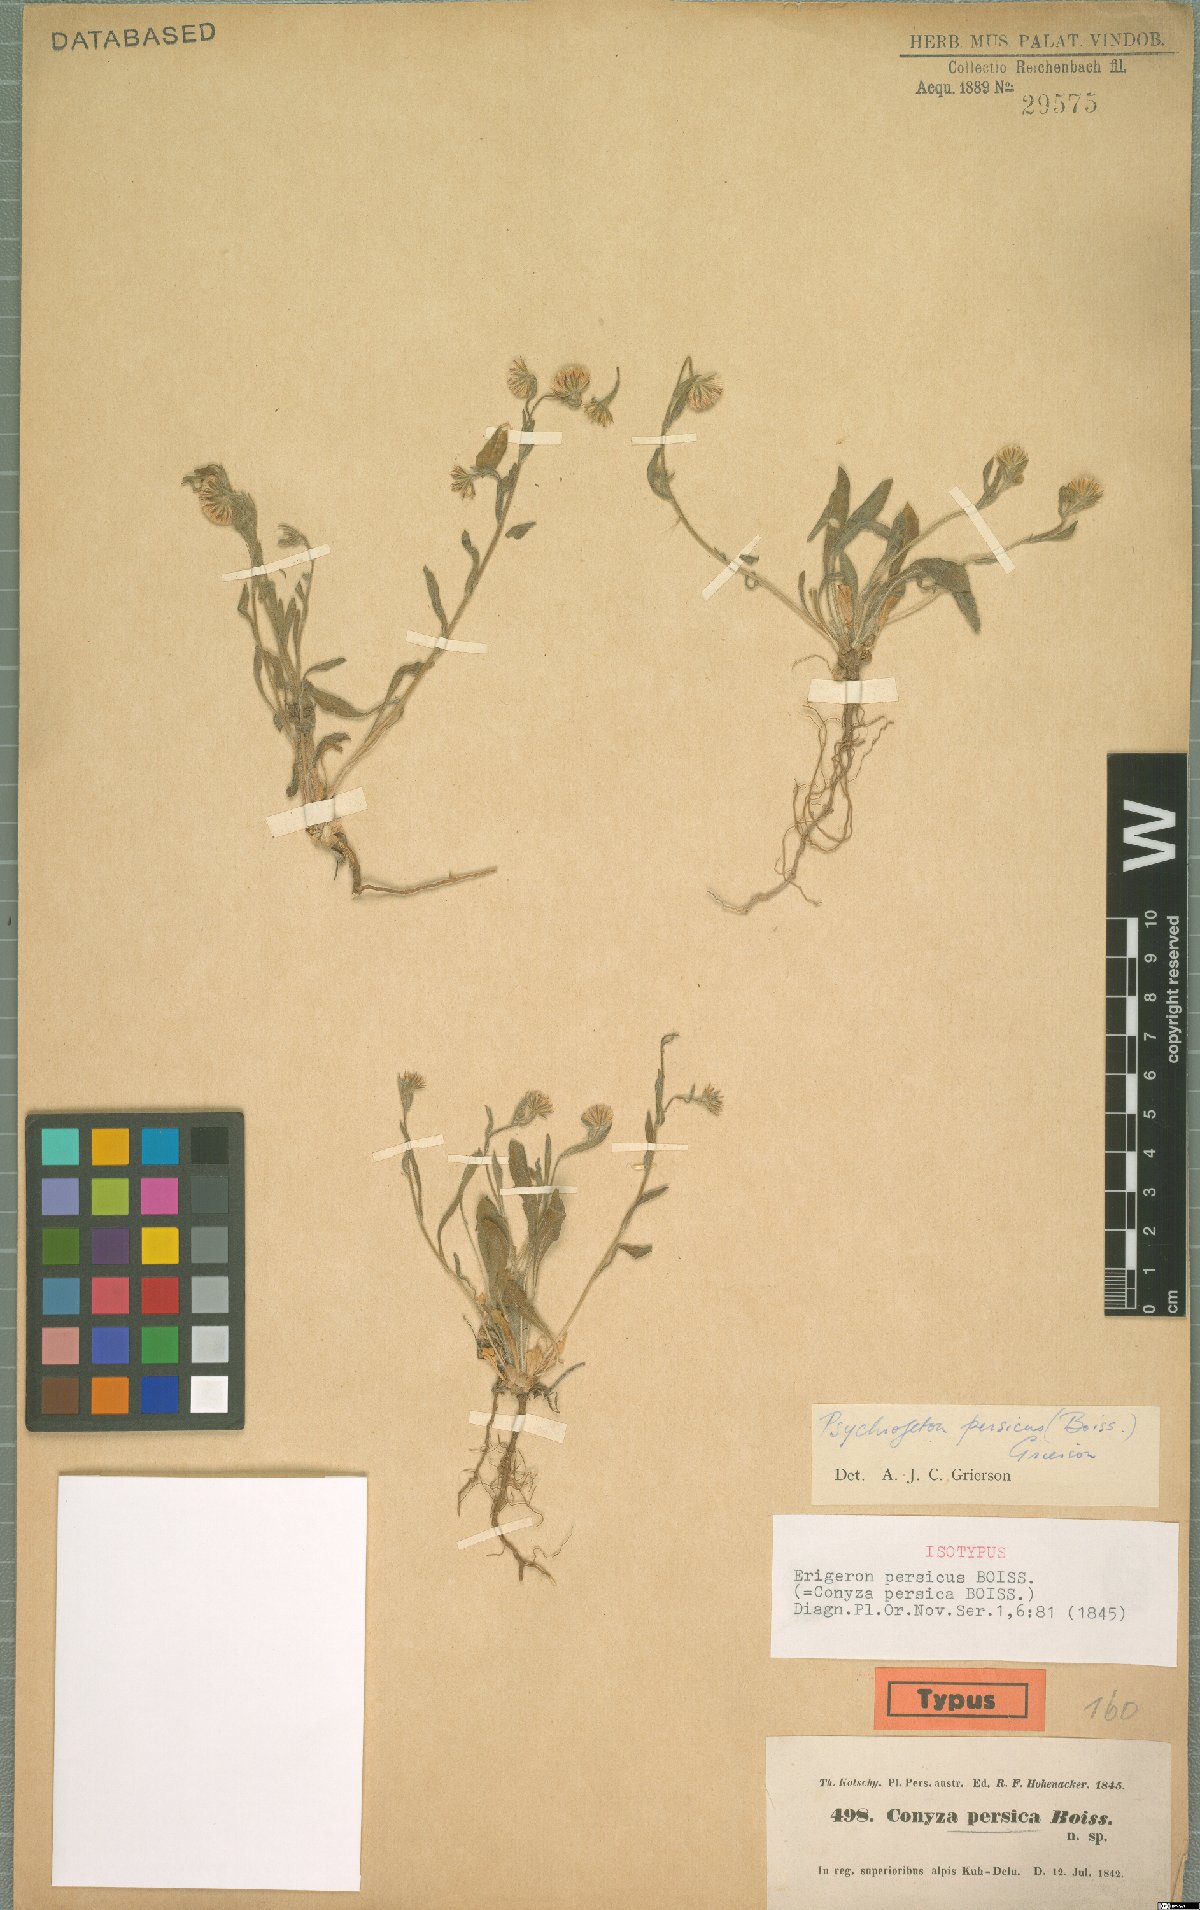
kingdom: Plantae
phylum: Tracheophyta
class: Magnoliopsida
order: Asterales
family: Asteraceae
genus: Psychrogeton
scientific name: Psychrogeton persicus
